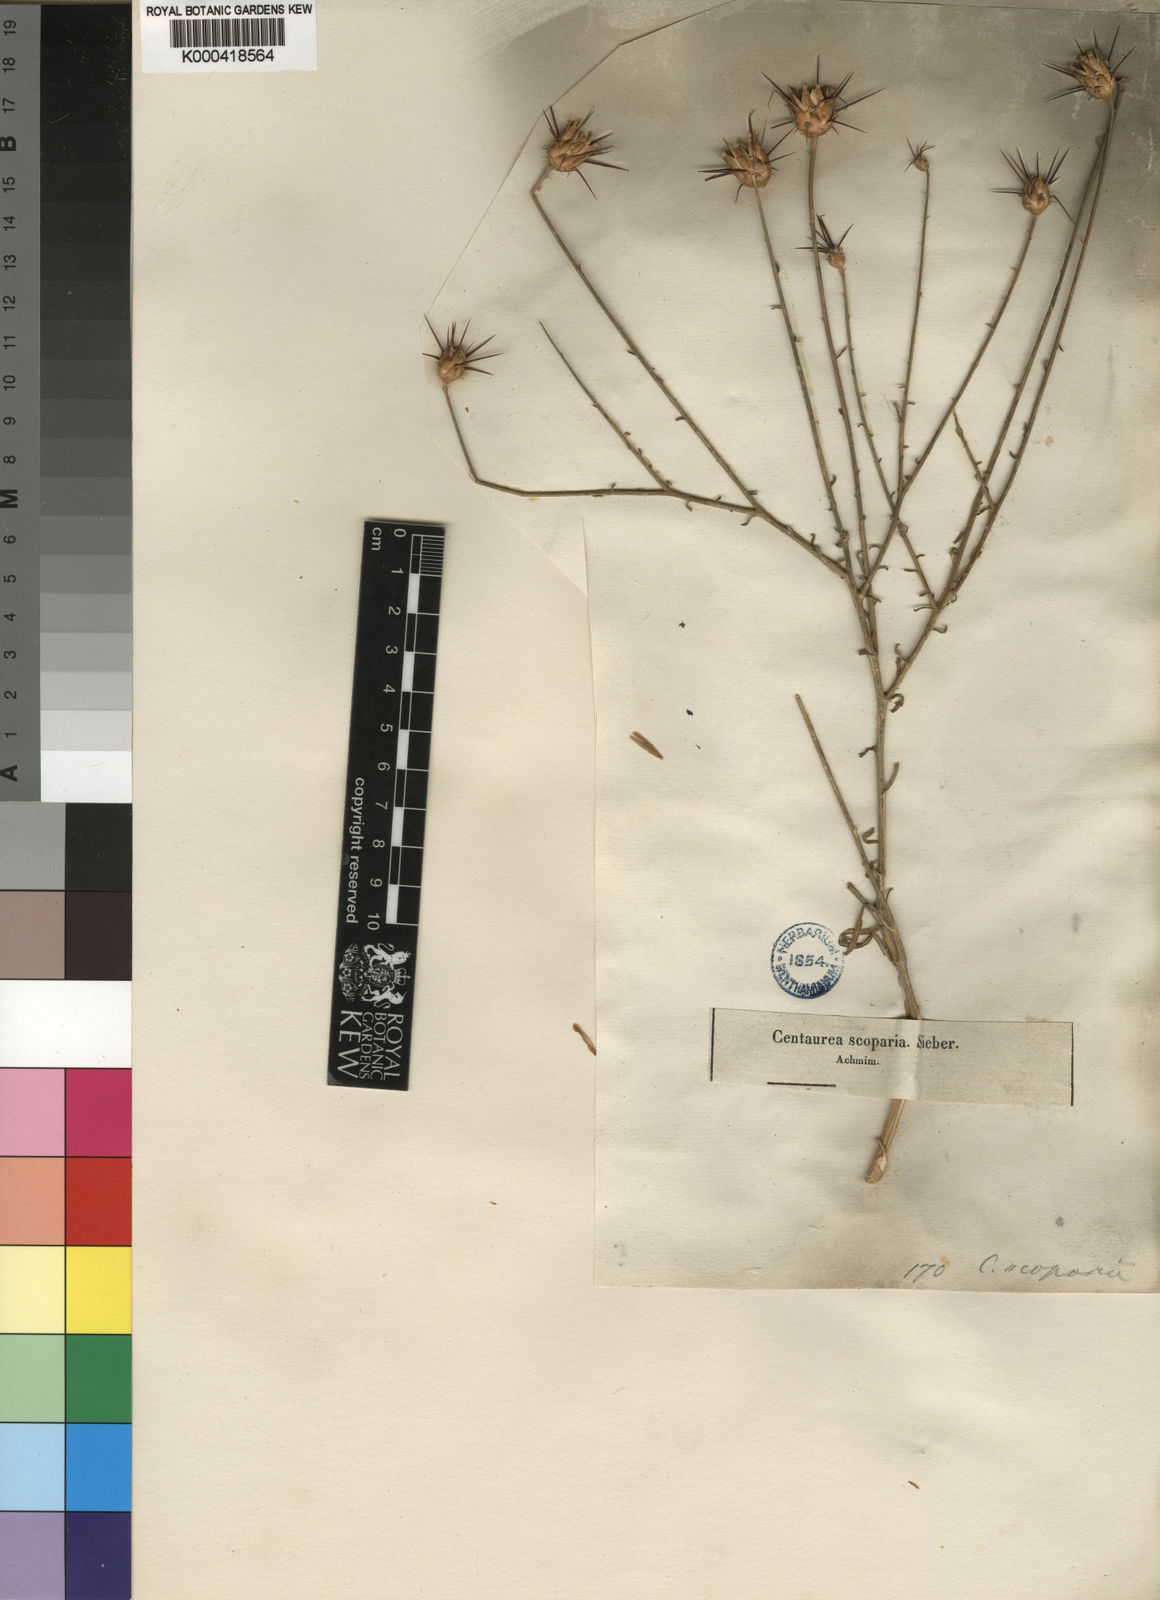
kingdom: Plantae
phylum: Tracheophyta
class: Magnoliopsida
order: Asterales
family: Asteraceae
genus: Centaurea
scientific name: Centaurea
